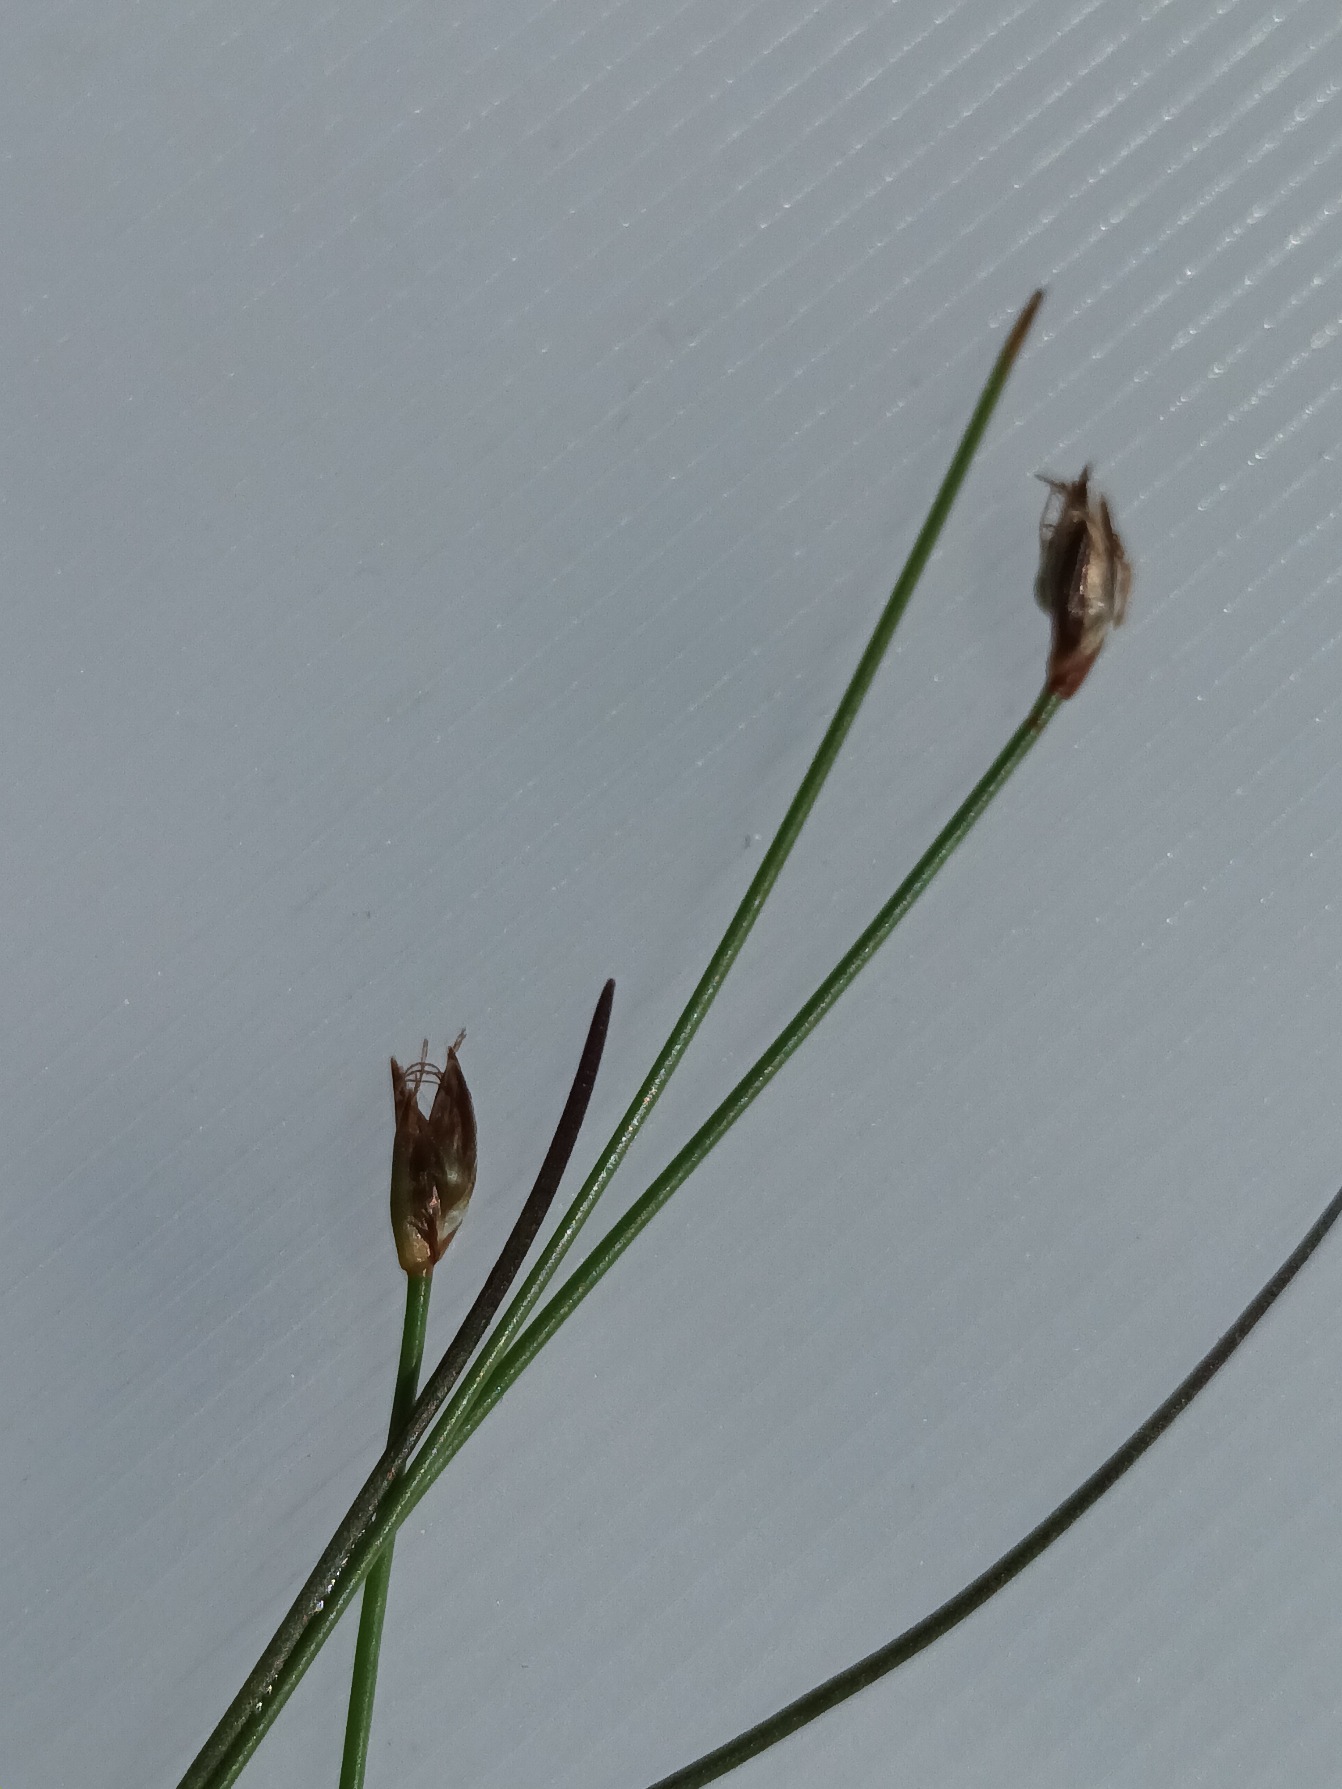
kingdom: Plantae
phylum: Tracheophyta
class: Liliopsida
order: Poales
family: Cyperaceae
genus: Eleocharis
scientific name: Eleocharis quinqueflora
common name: Fåblomstret kogleaks
